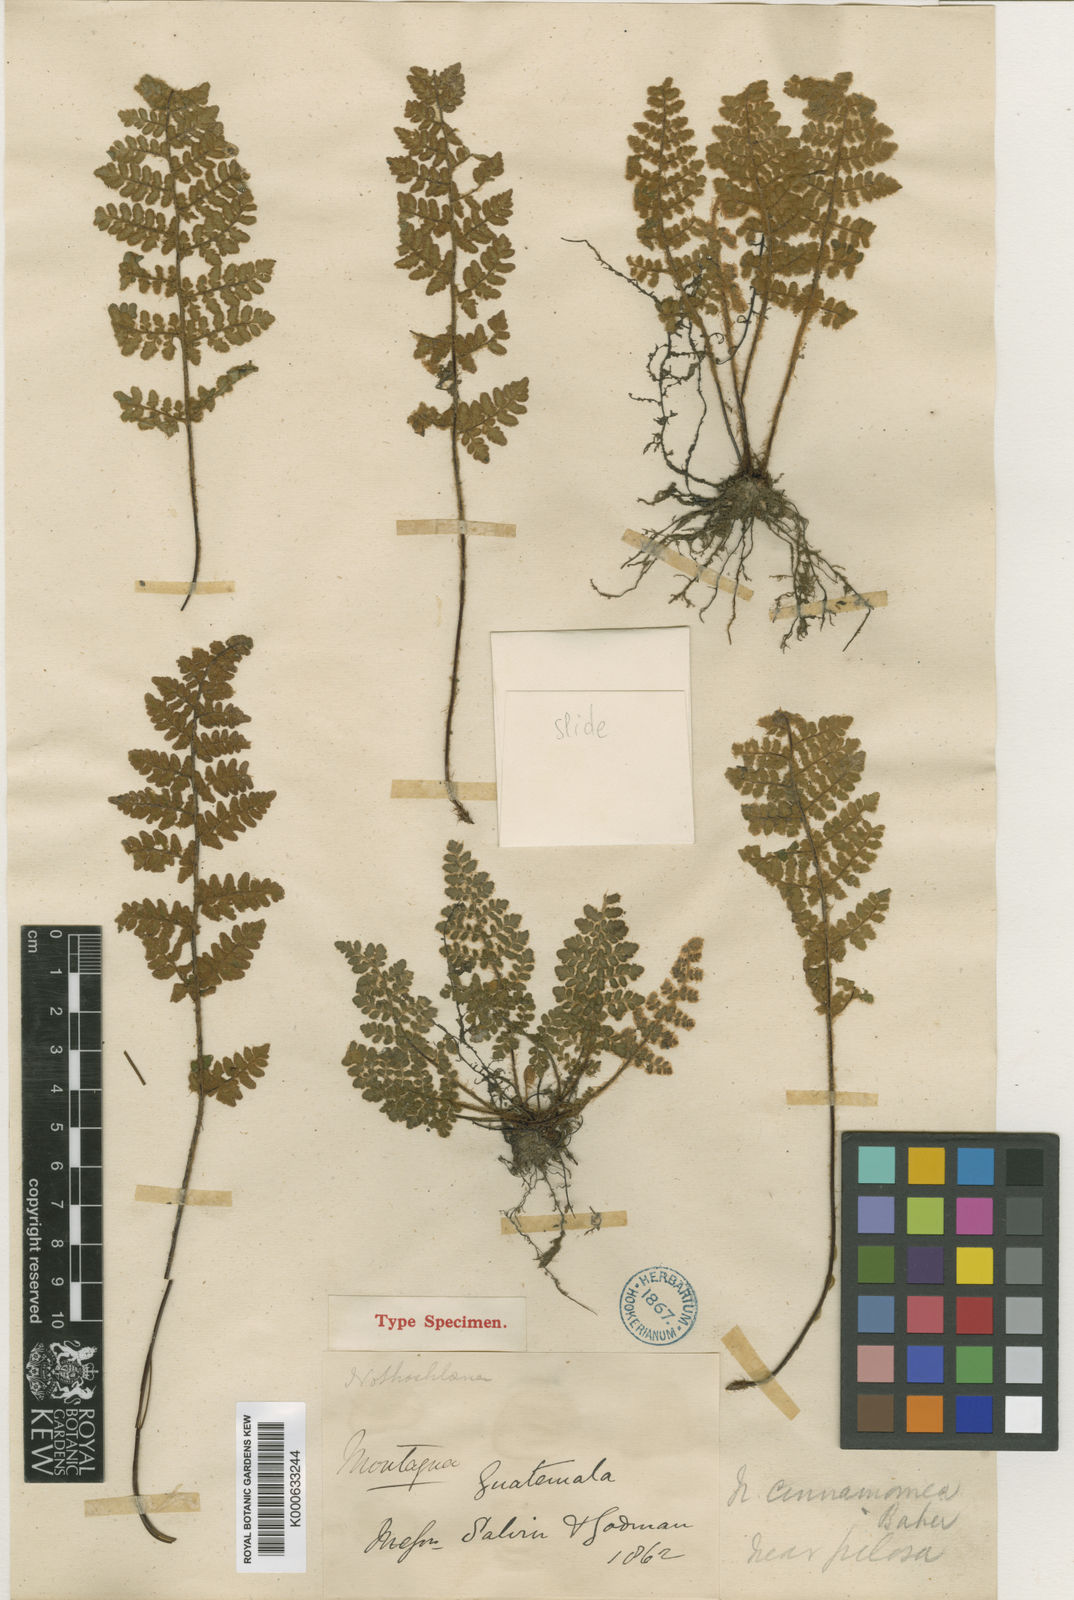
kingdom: Plantae
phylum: Tracheophyta
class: Polypodiopsida
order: Polypodiales
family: Pteridaceae
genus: Cheilanthes
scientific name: Cheilanthes
